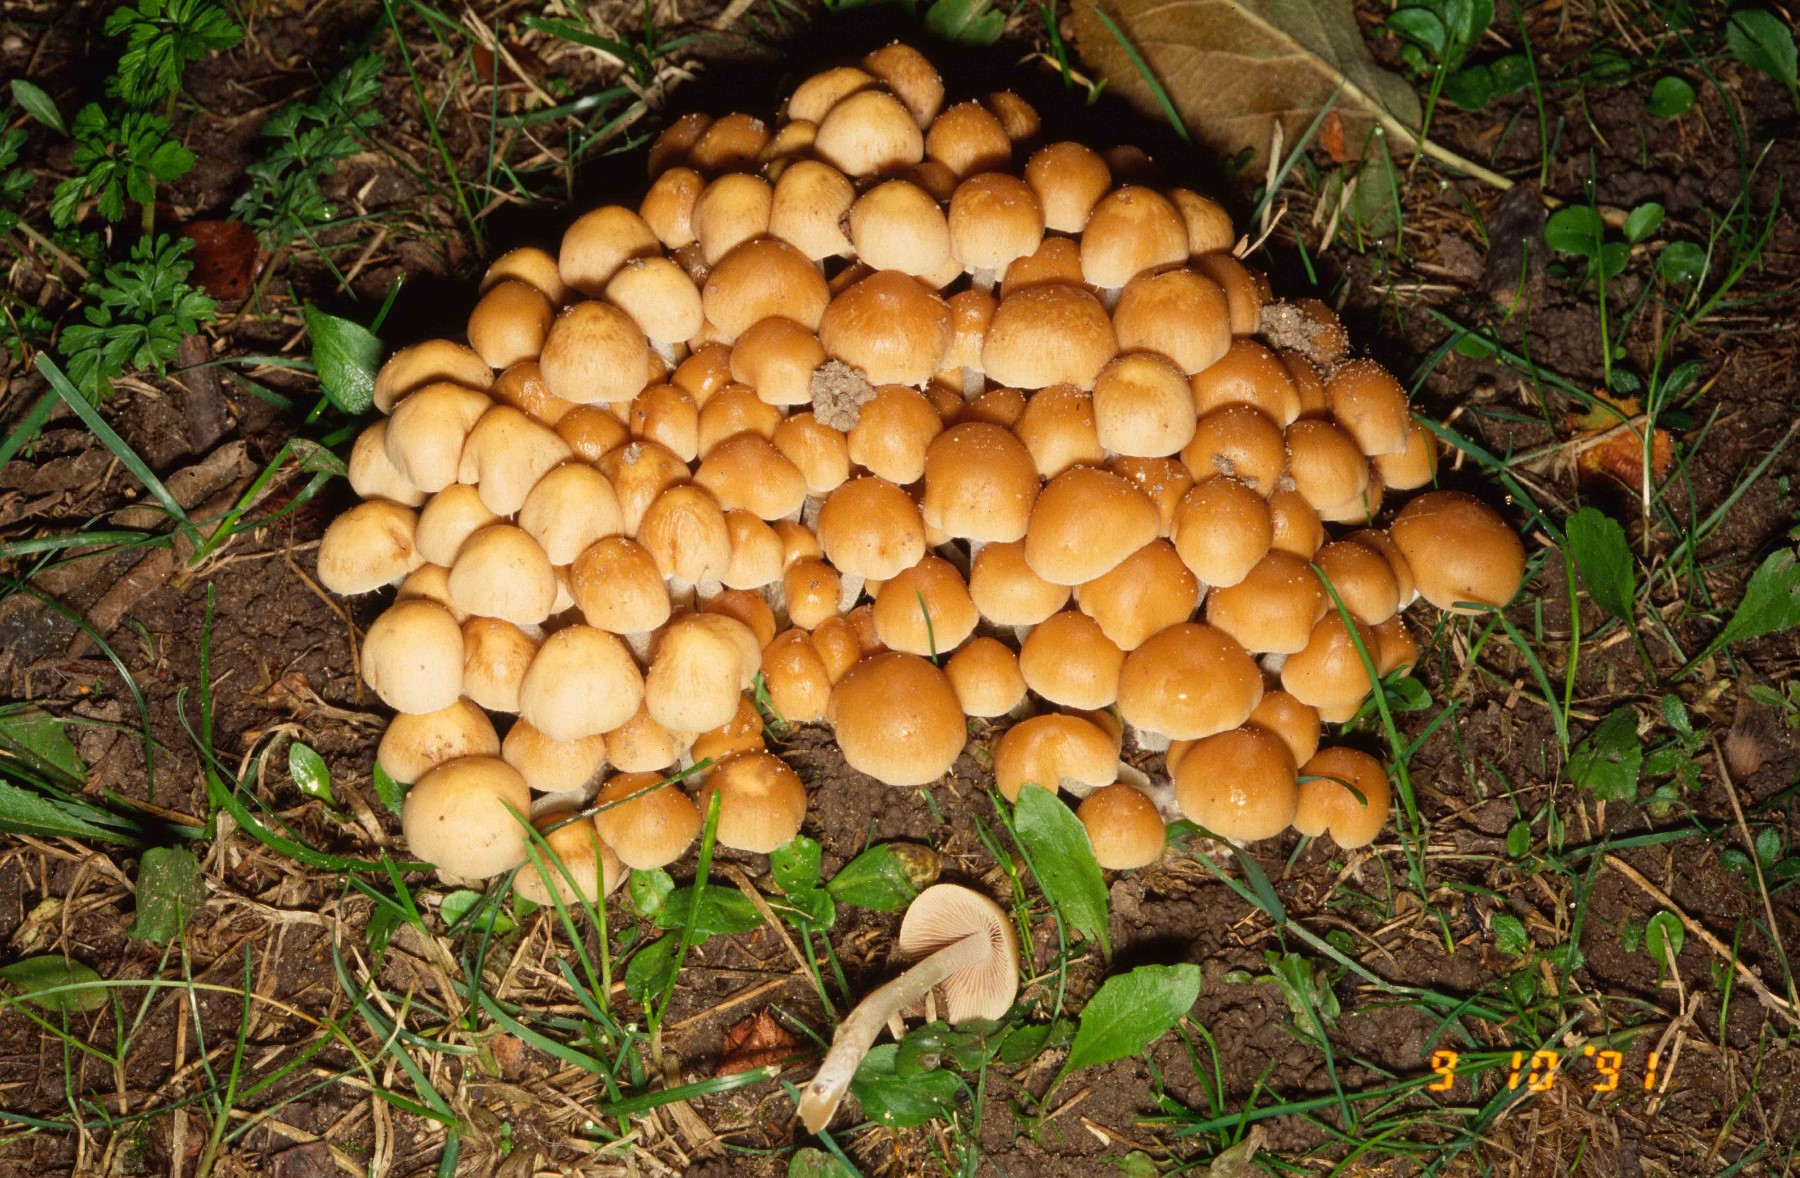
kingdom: Fungi
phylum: Basidiomycota
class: Agaricomycetes
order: Agaricales
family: Psathyrellaceae
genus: Britzelmayria
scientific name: Britzelmayria multipedata
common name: knippe-mørkhat
